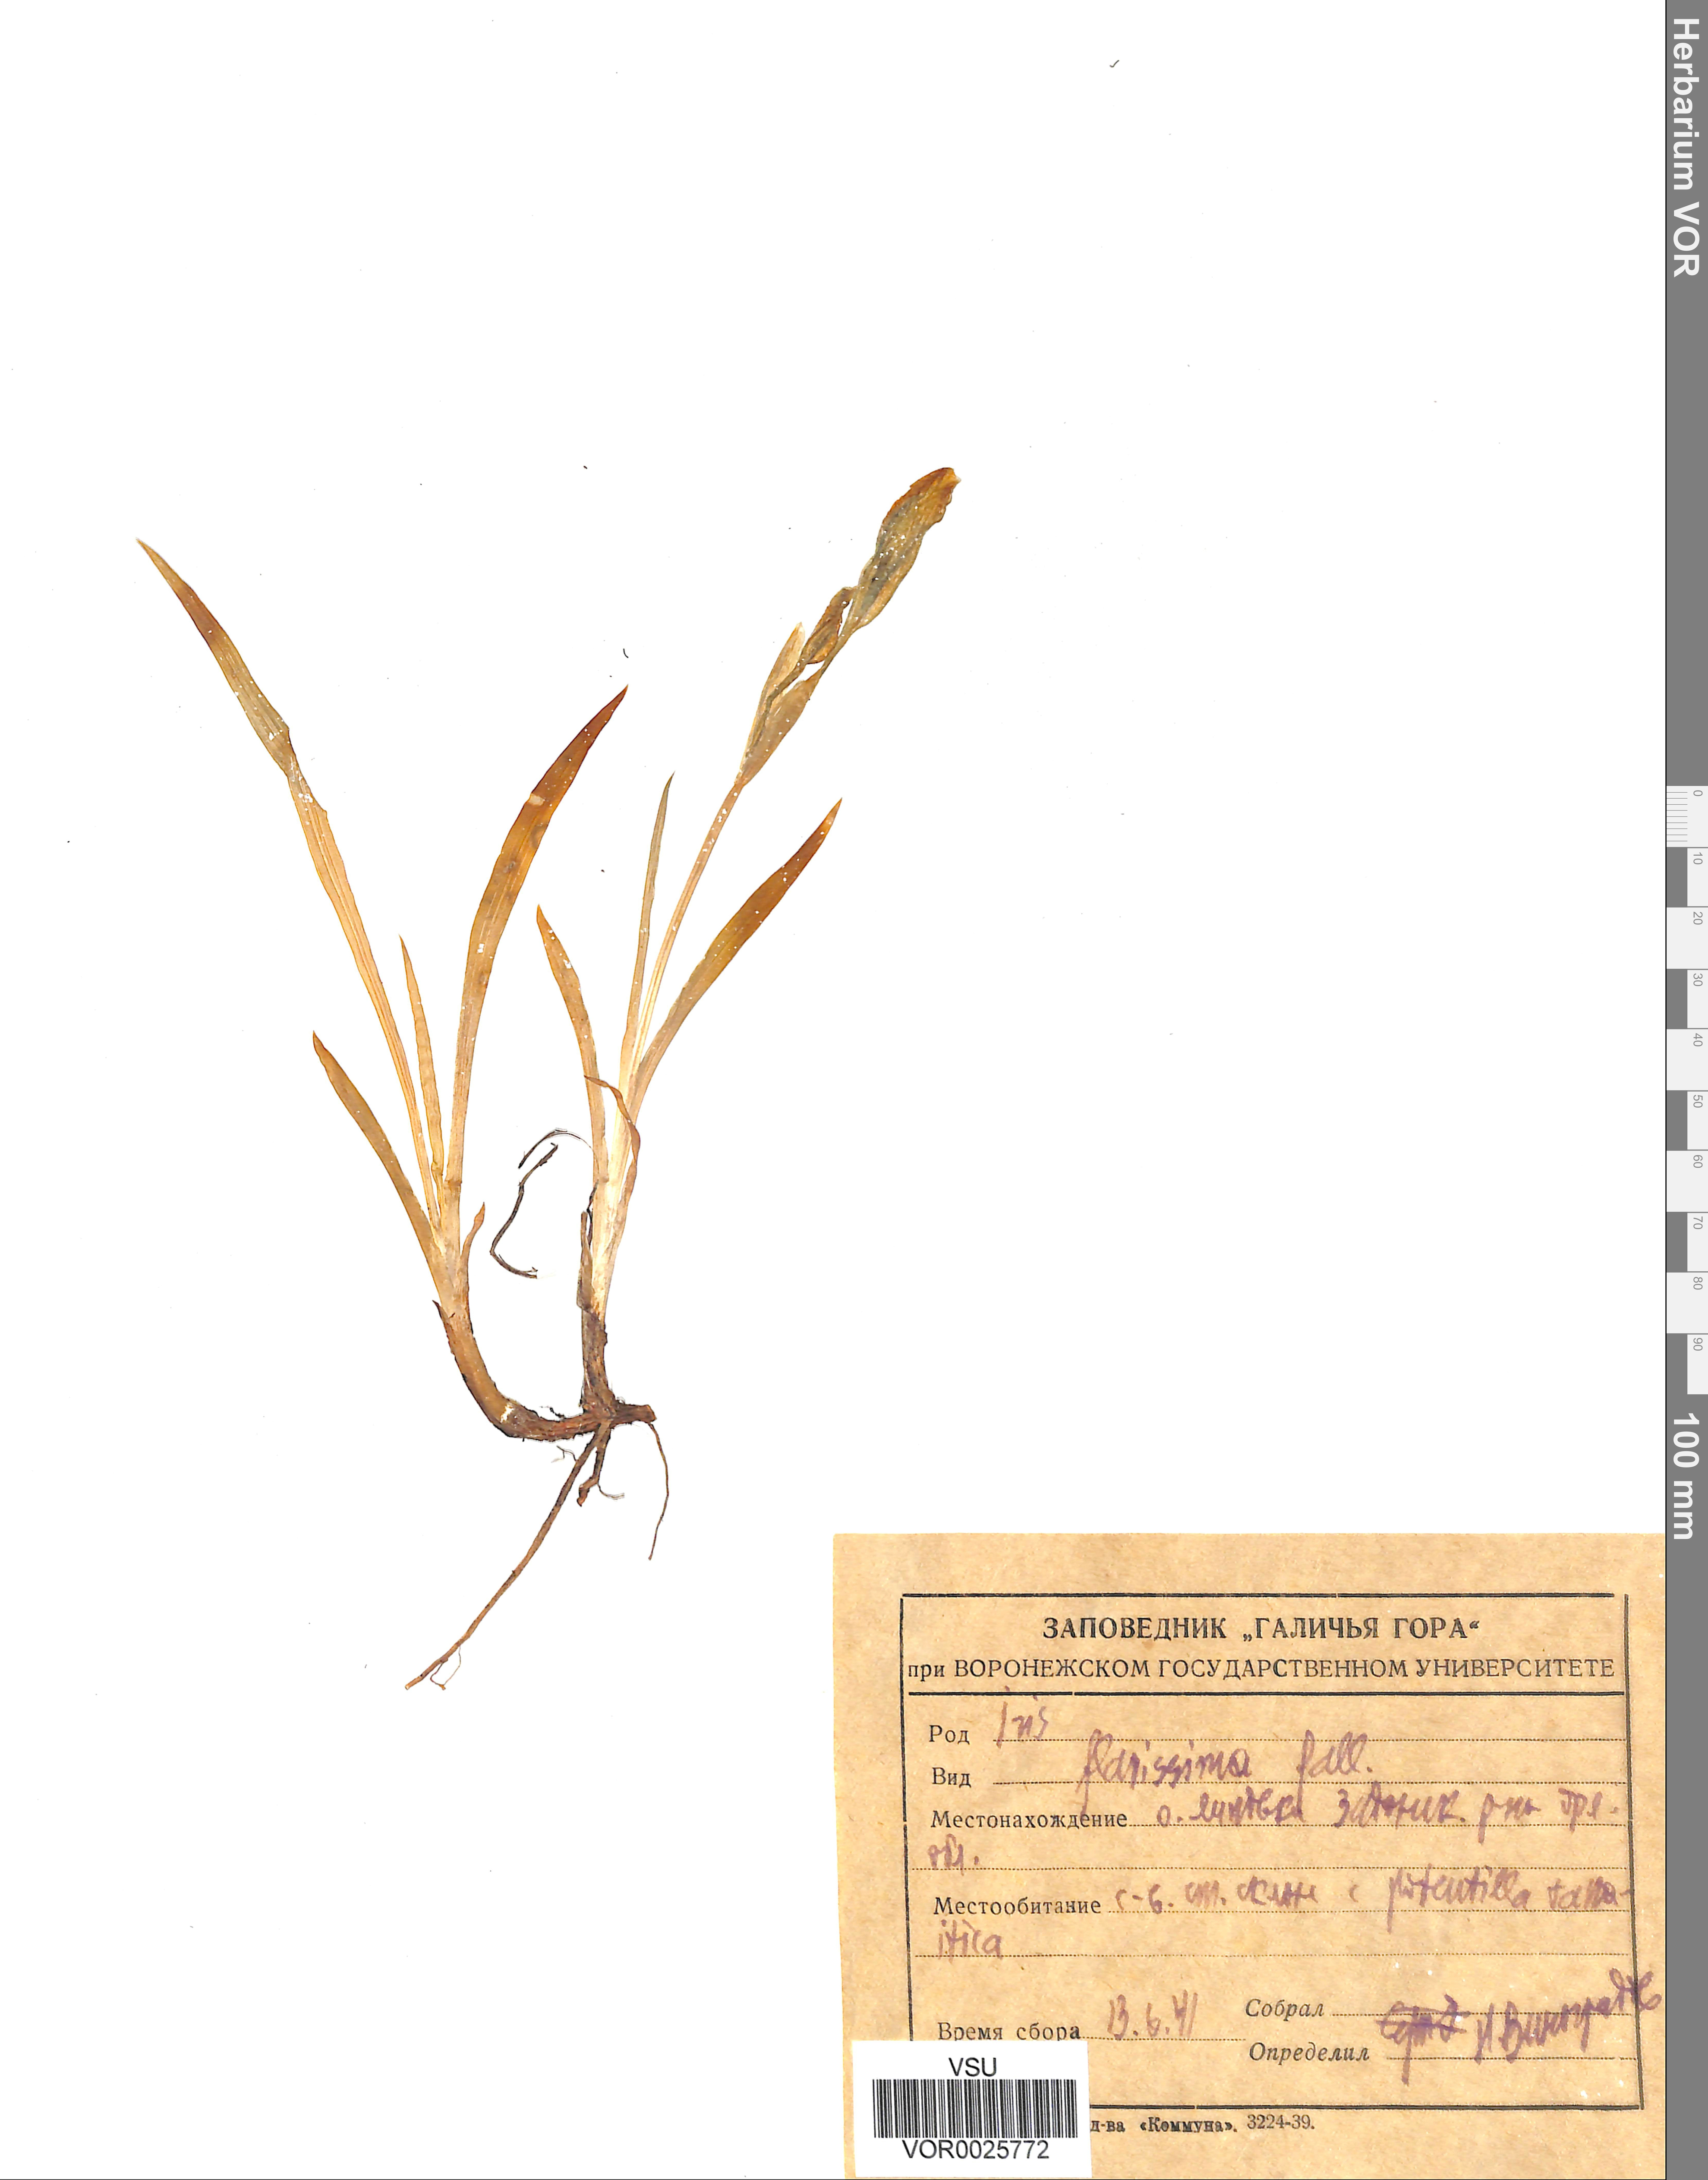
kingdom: Plantae
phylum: Tracheophyta
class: Liliopsida
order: Asparagales
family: Iridaceae
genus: Iris
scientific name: Iris arenaria
